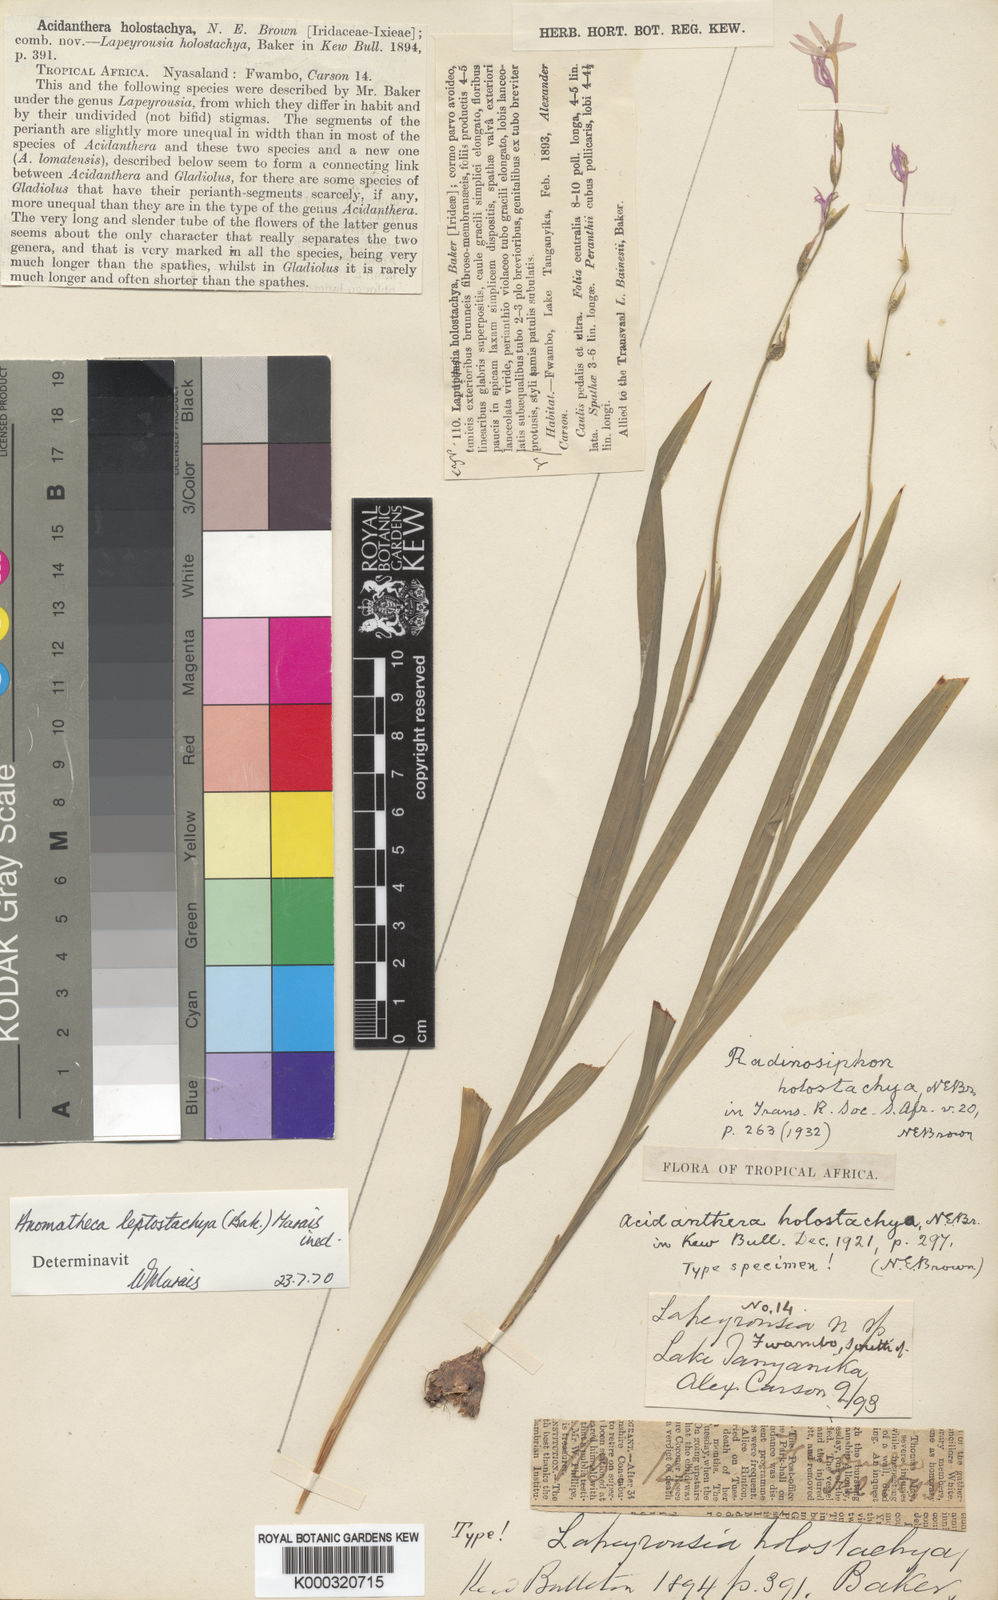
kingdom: Plantae
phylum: Tracheophyta
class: Liliopsida
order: Asparagales
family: Iridaceae
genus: Radinosiphon
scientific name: Radinosiphon leptostachya
